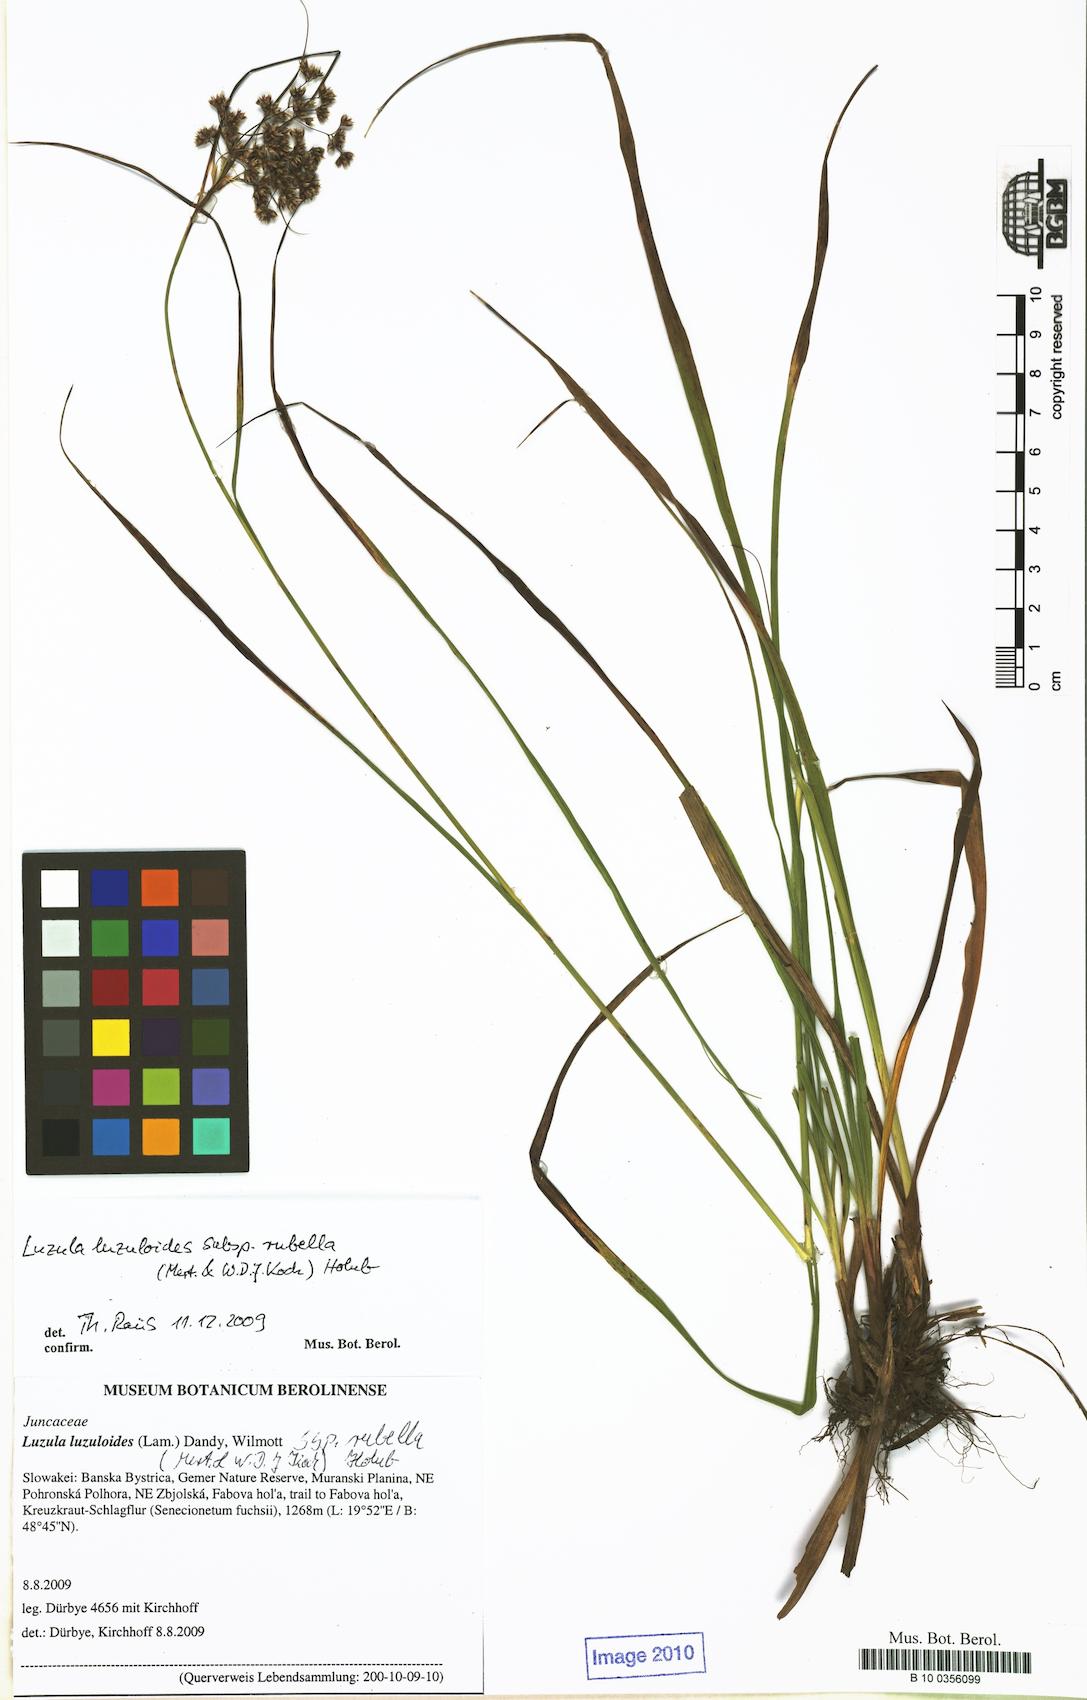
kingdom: Plantae
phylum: Tracheophyta
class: Liliopsida
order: Poales
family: Juncaceae
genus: Luzula
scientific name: Luzula luzuloides
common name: White wood-rush
